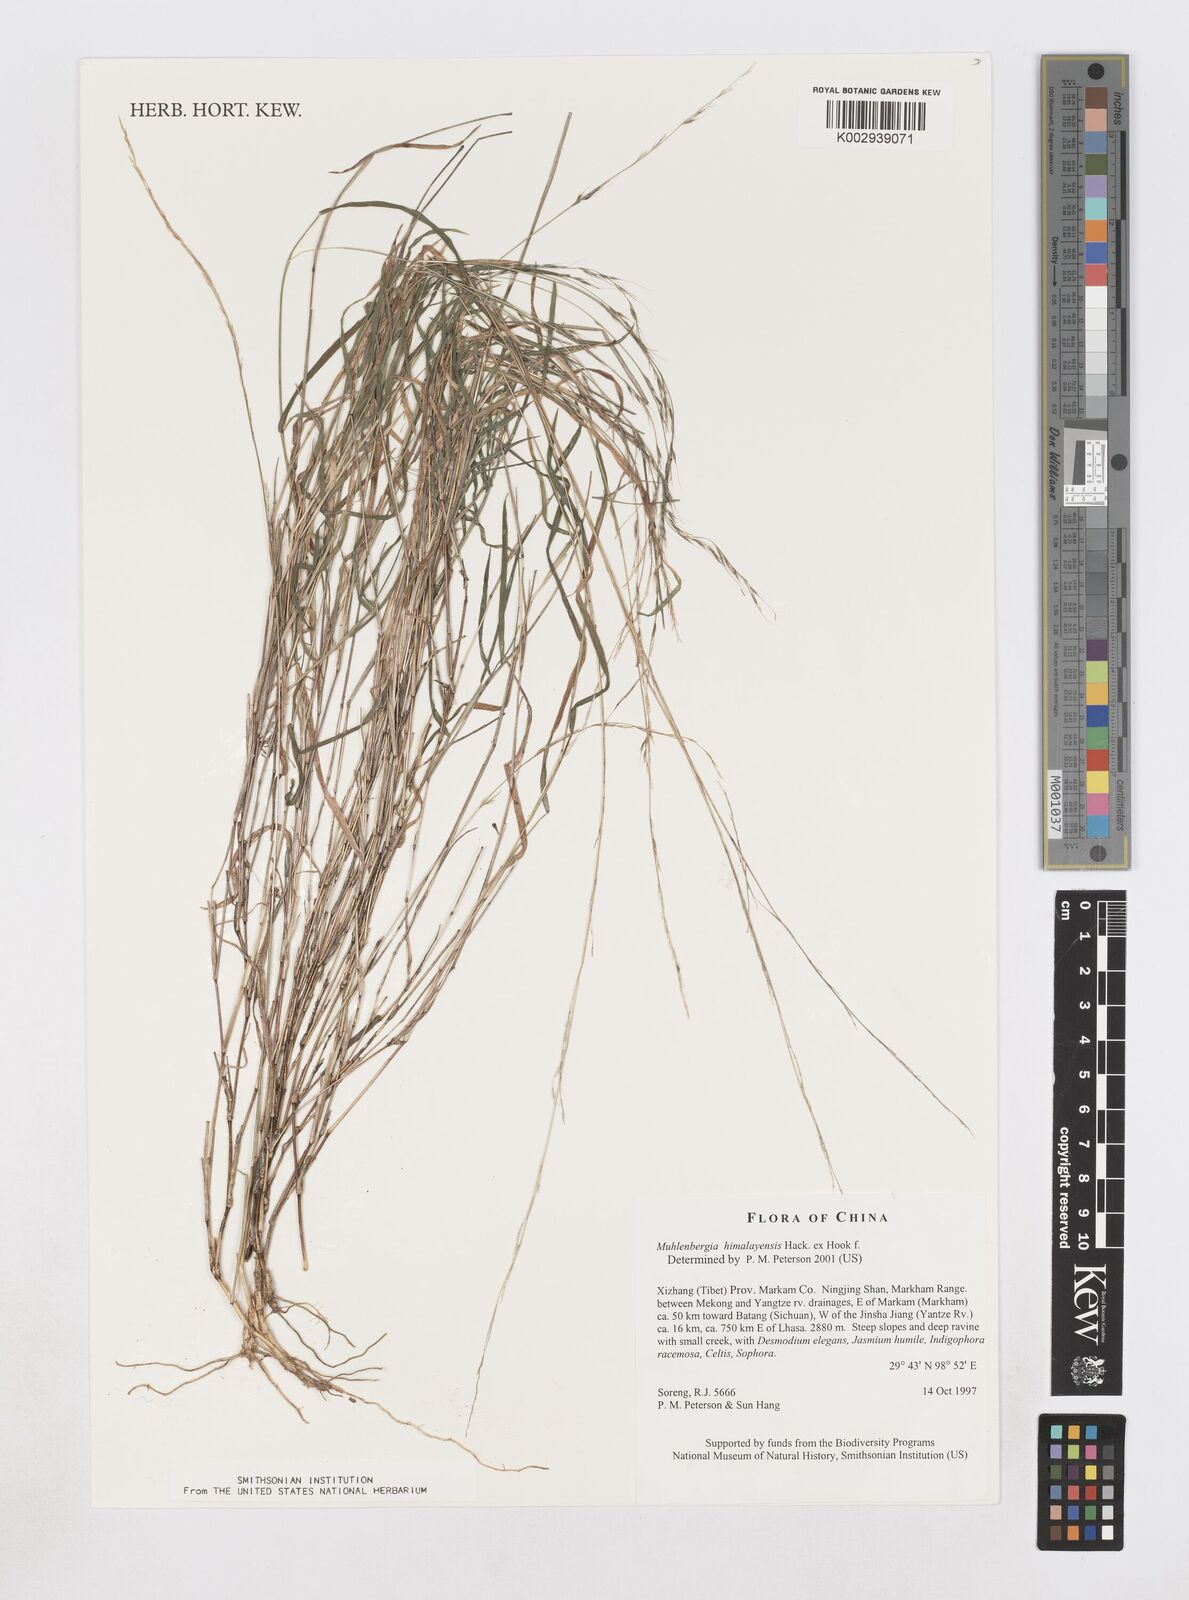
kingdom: Plantae
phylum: Tracheophyta
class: Liliopsida
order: Poales
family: Poaceae
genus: Muhlenbergia
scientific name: Muhlenbergia himalayensis
